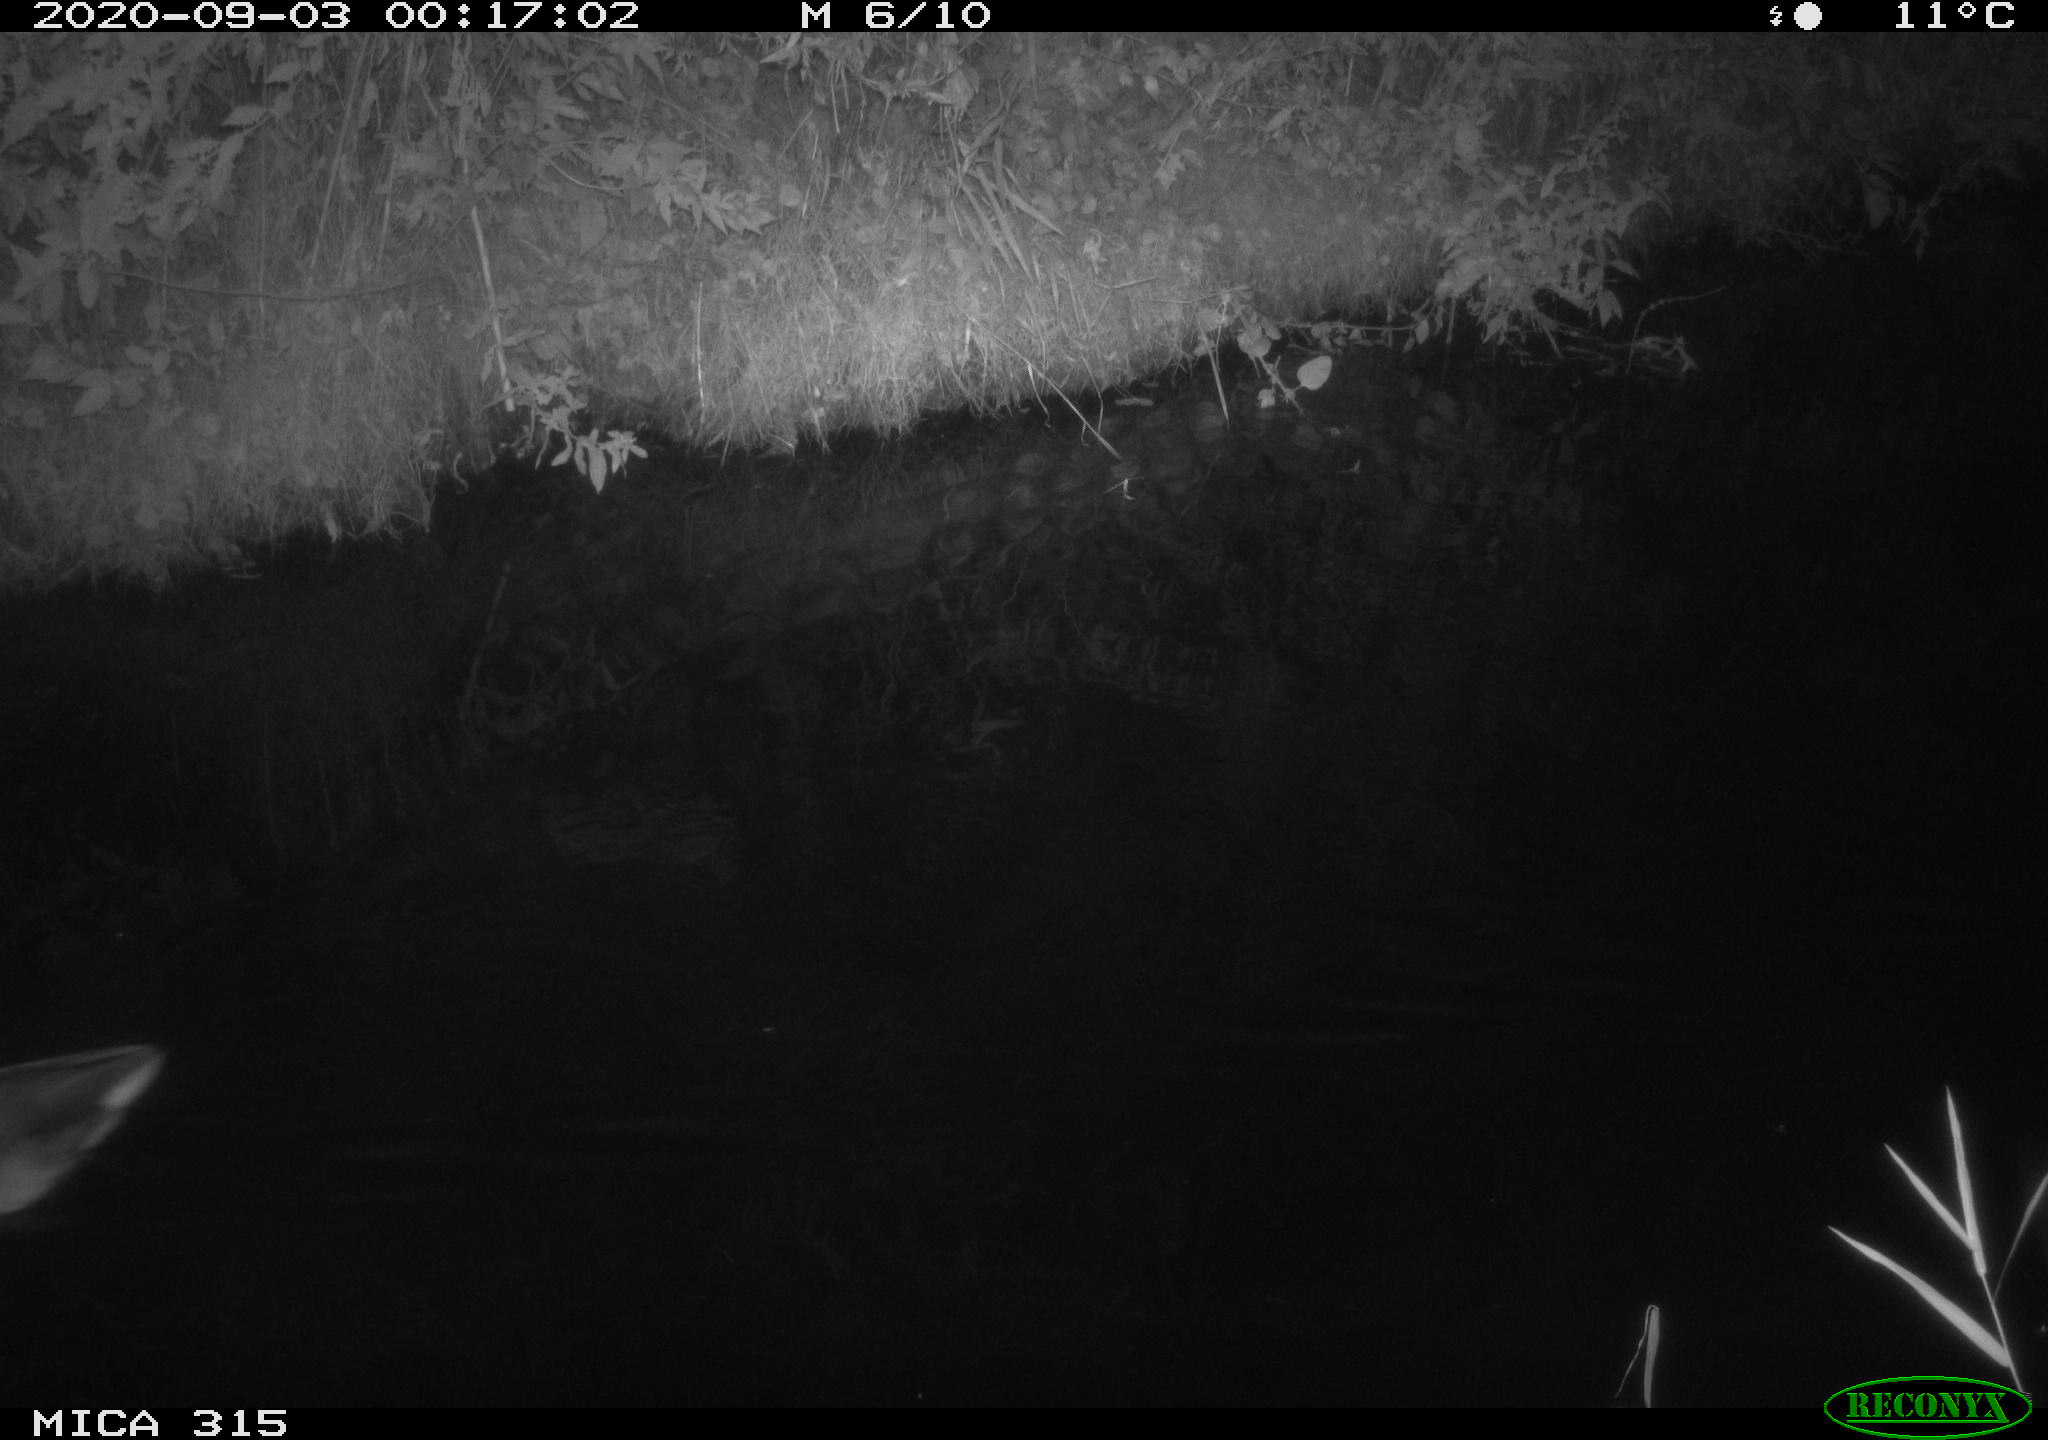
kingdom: Animalia
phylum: Chordata
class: Aves
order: Anseriformes
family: Anatidae
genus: Anas
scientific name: Anas platyrhynchos
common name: Mallard
